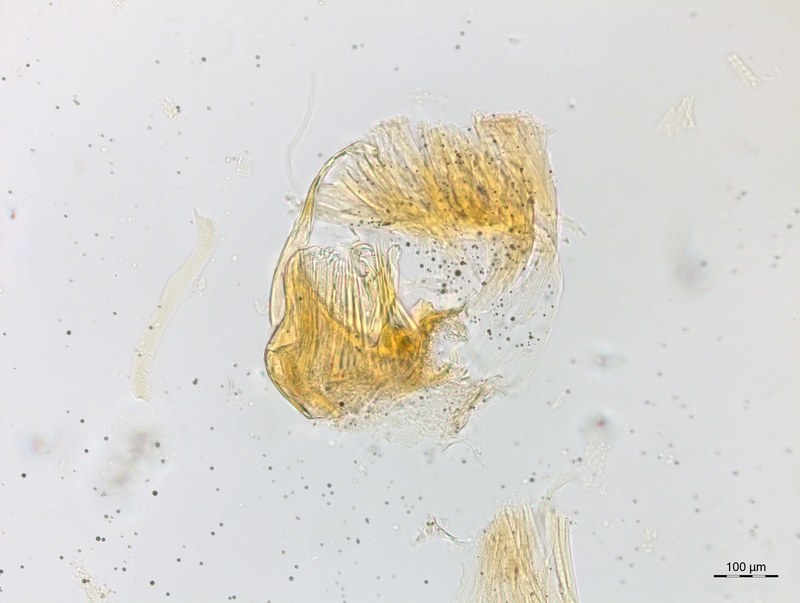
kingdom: Animalia
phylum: Arthropoda
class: Diplopoda
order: Chordeumatida
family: Craspedosomatidae
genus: Craspedosoma
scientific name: Craspedosoma brentanum
